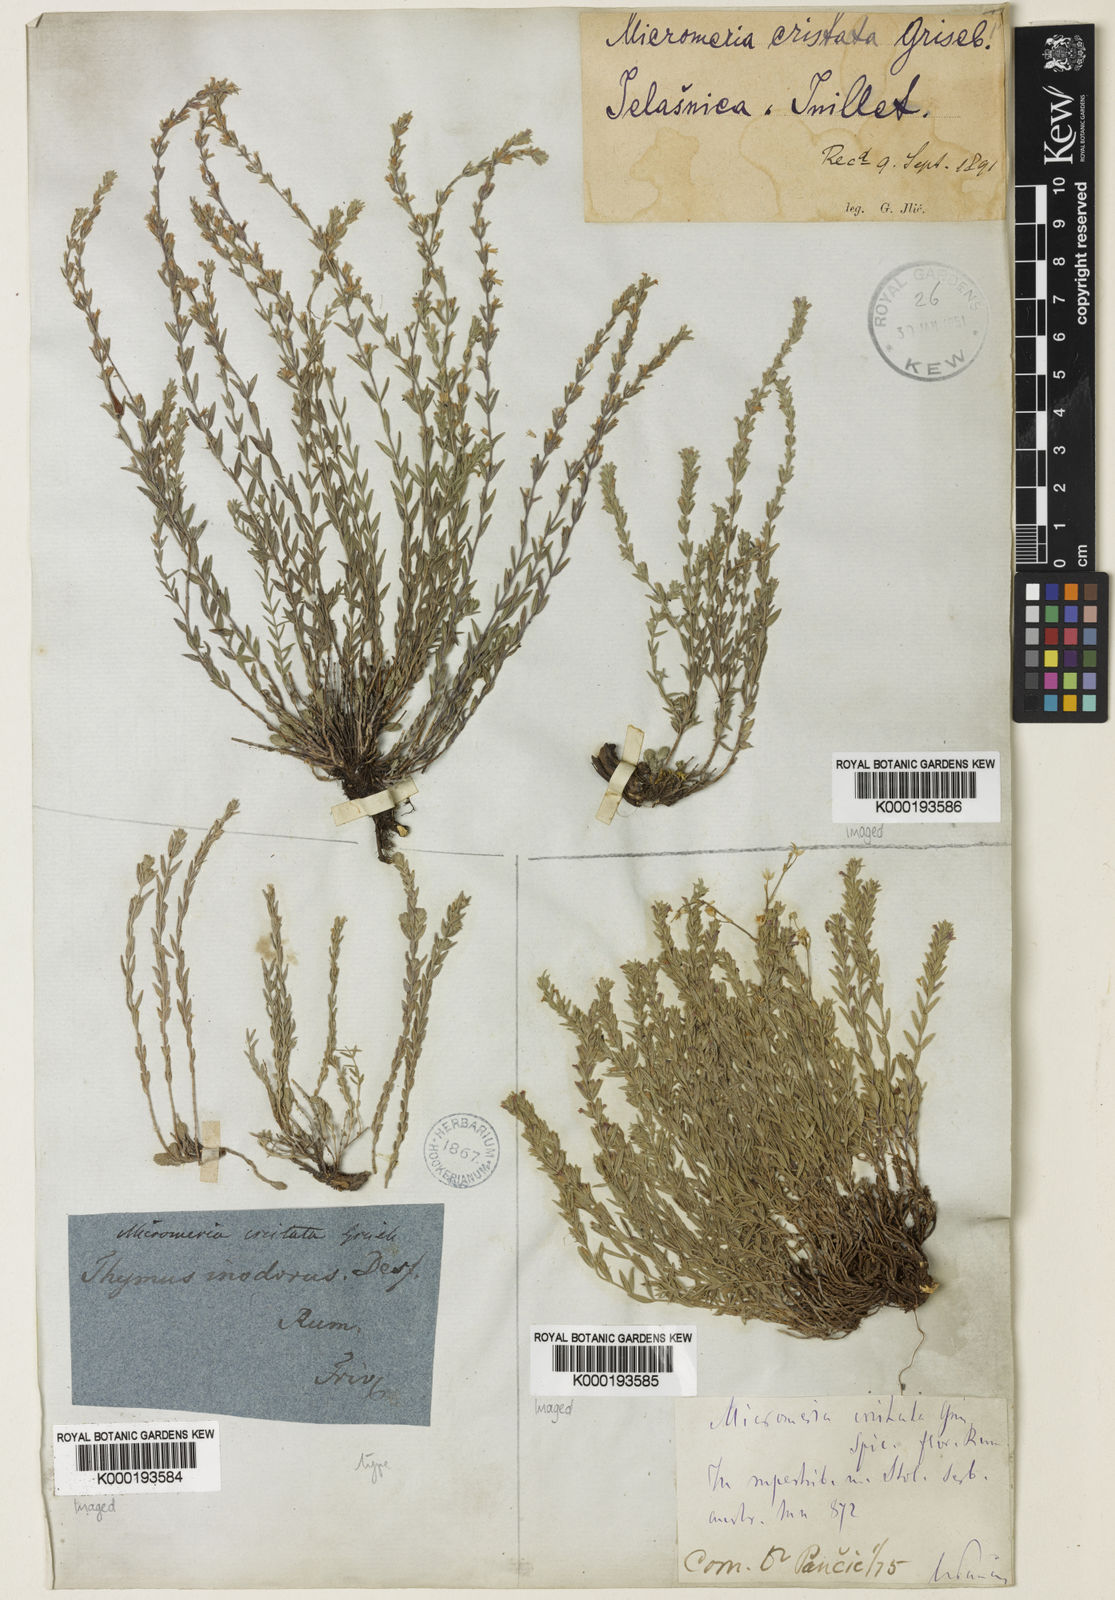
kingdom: Plantae
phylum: Tracheophyta
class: Magnoliopsida
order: Lamiales
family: Lamiaceae
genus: Micromeria
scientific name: Micromeria cristata
